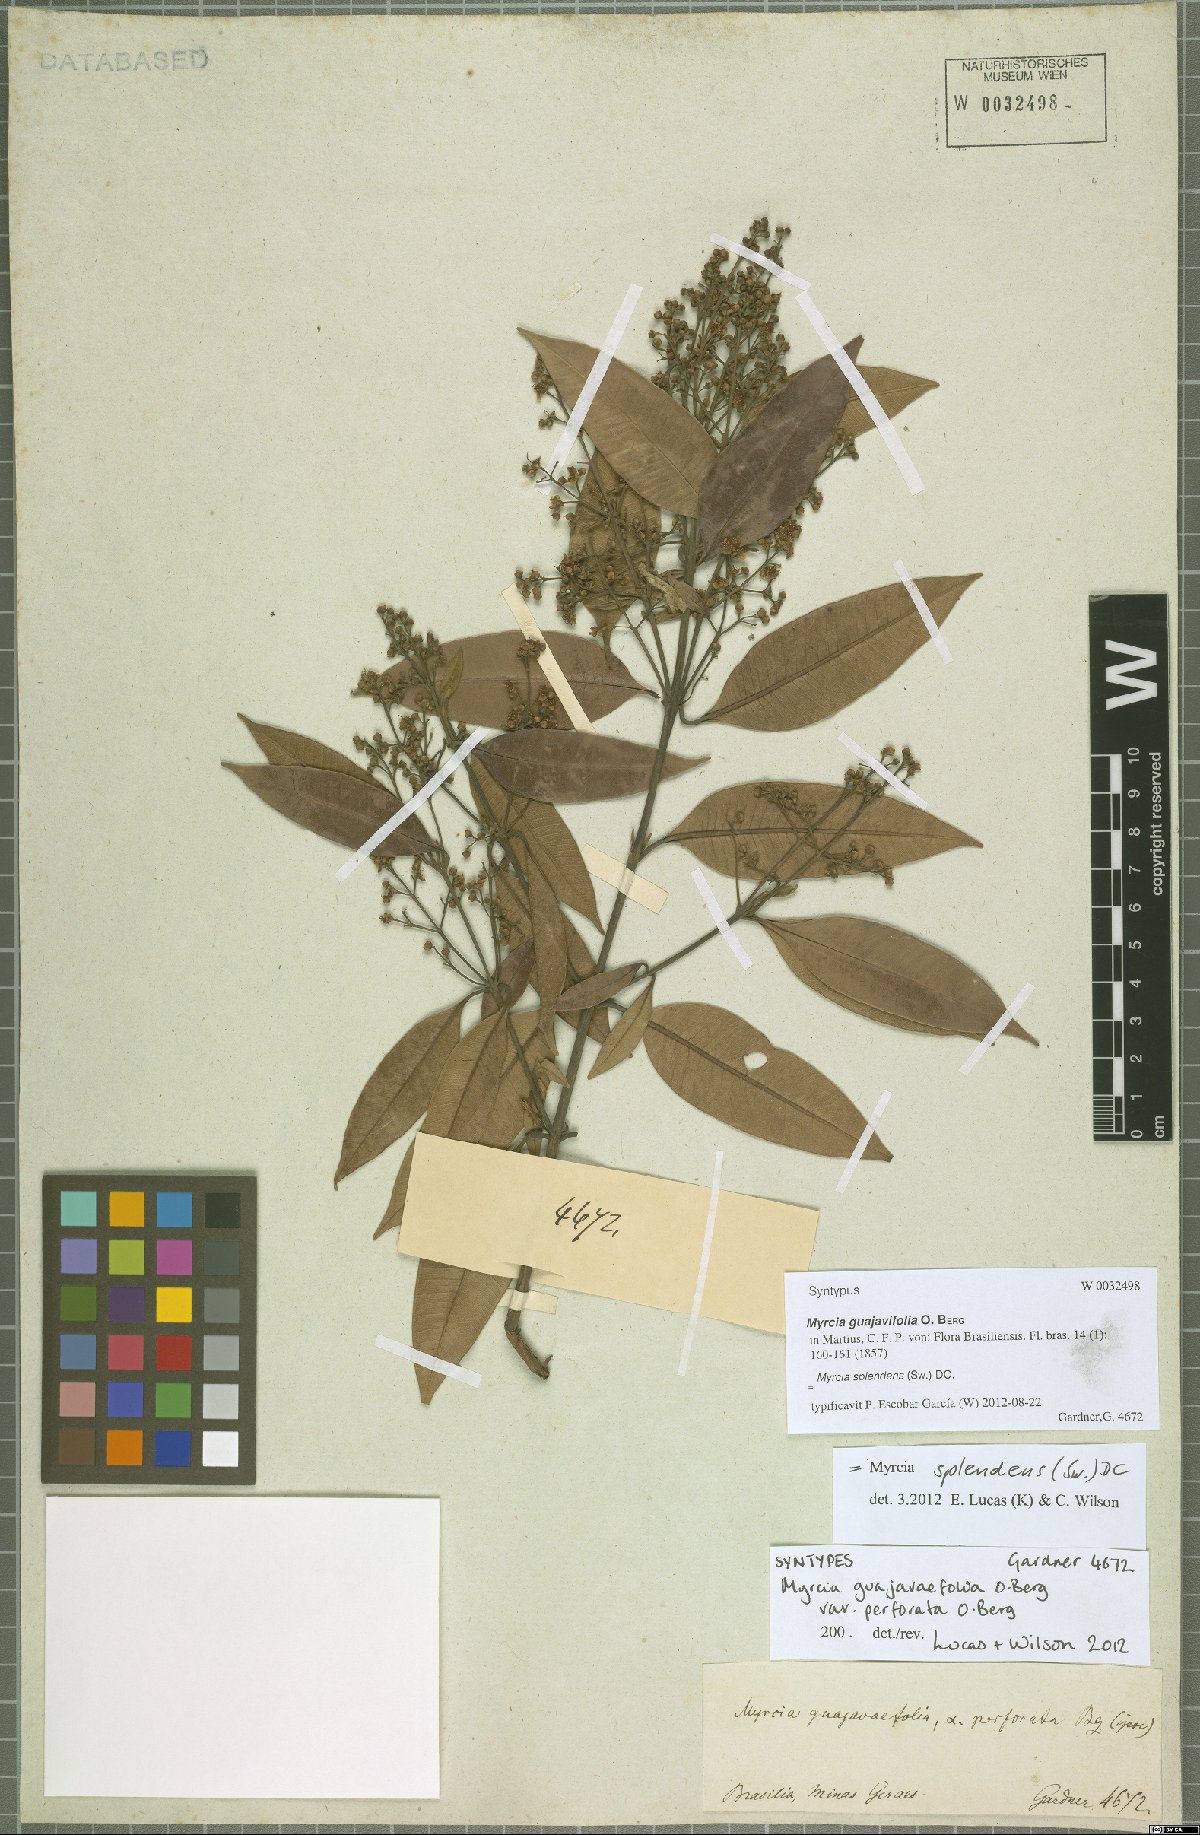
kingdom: Plantae
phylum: Tracheophyta
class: Magnoliopsida
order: Myrtales
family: Myrtaceae
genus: Myrcia
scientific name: Myrcia splendens
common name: Surinam cherry
